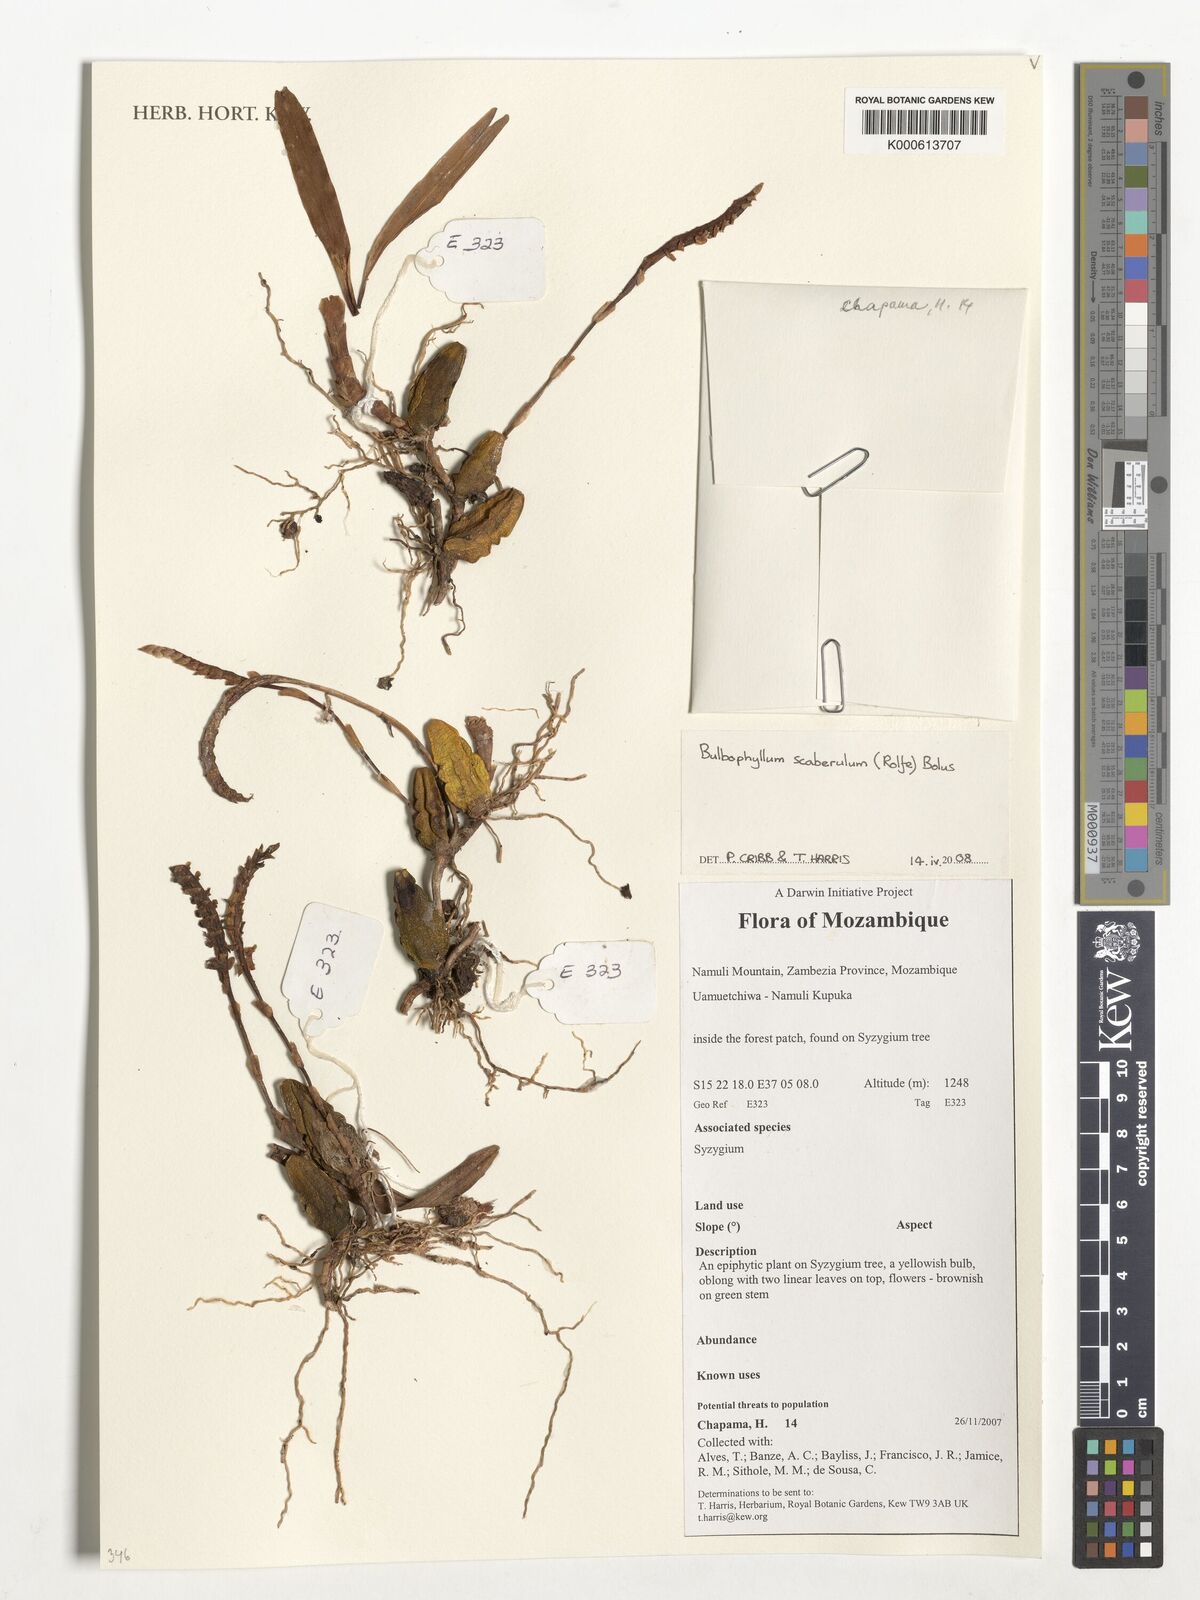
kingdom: Plantae
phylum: Tracheophyta
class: Liliopsida
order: Asparagales
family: Orchidaceae
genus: Bulbophyllum
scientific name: Bulbophyllum scaberulum
